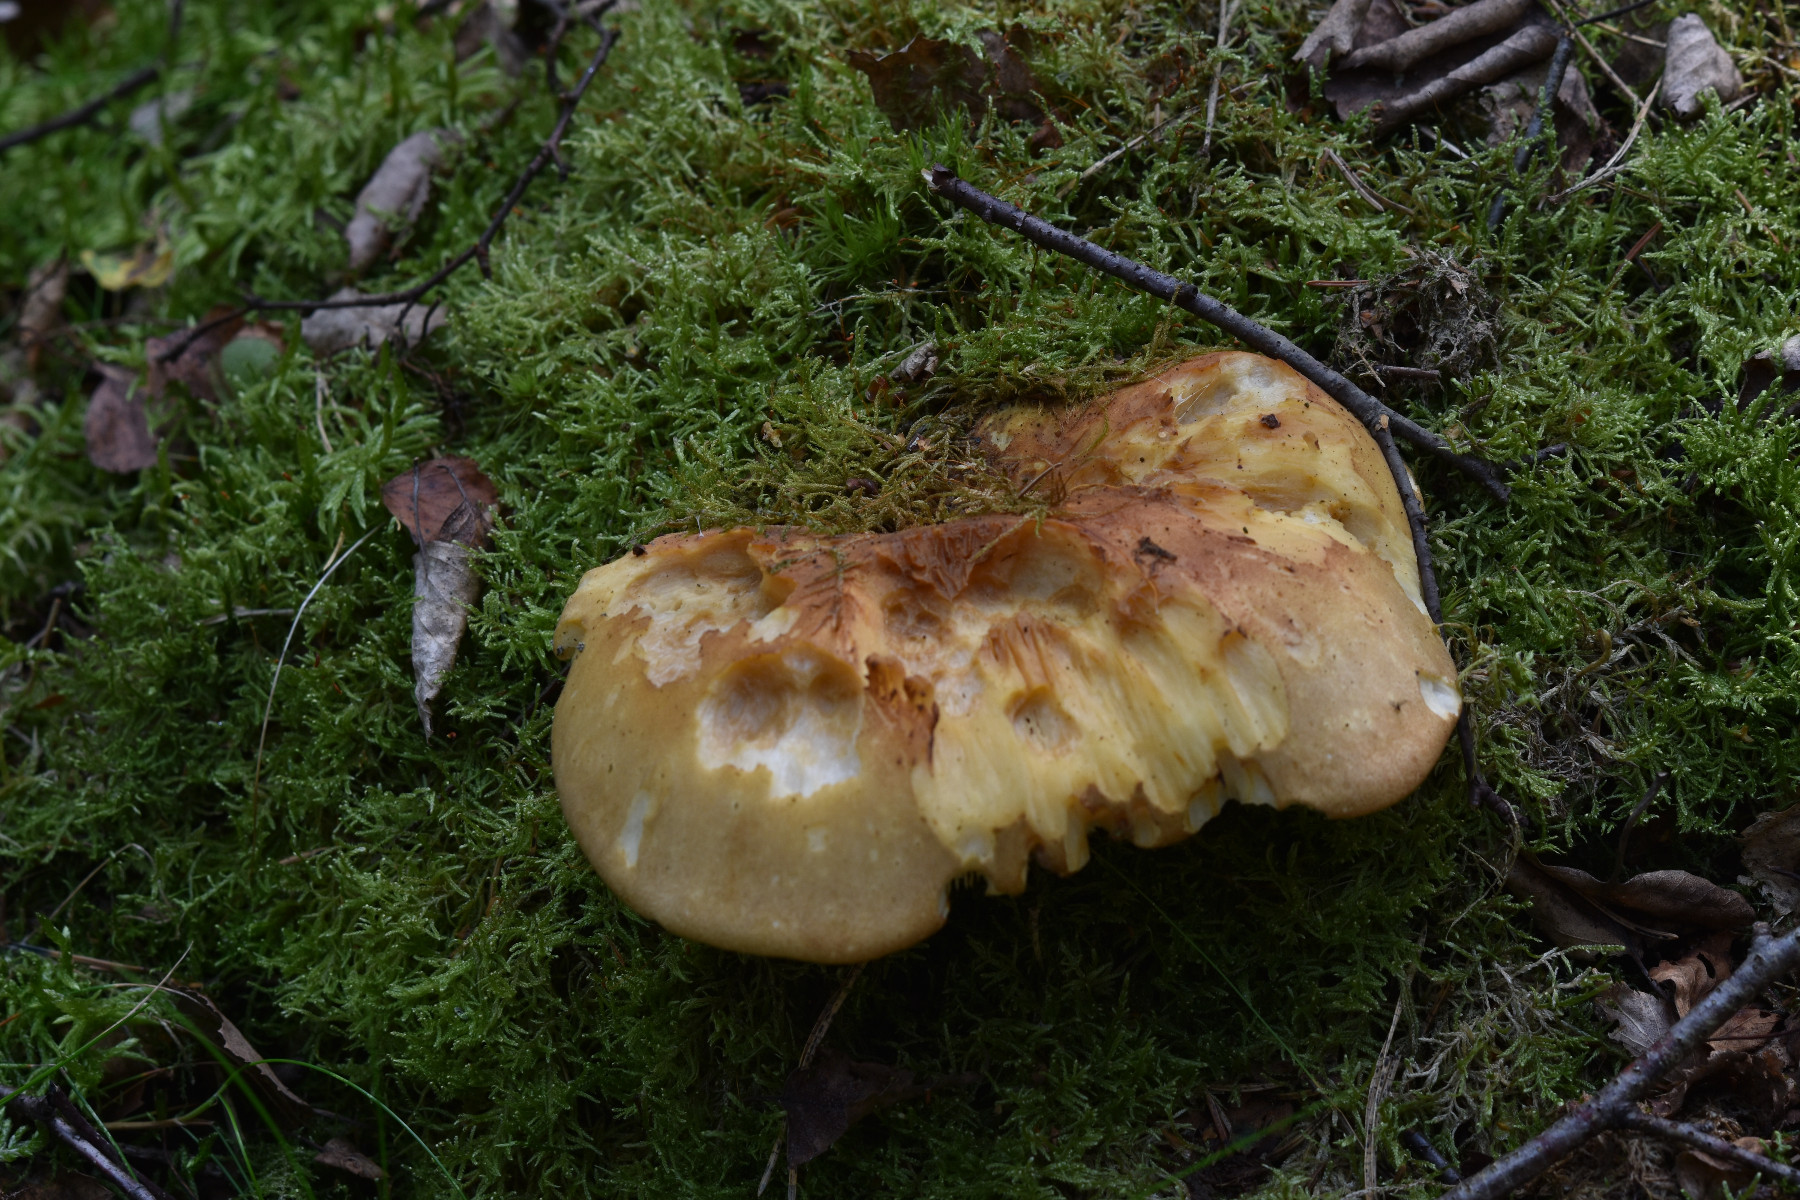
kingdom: Fungi
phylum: Basidiomycota
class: Agaricomycetes
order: Boletales
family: Tapinellaceae
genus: Tapinella
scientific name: Tapinella atrotomentosa
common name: sortfiltet viftesvamp
